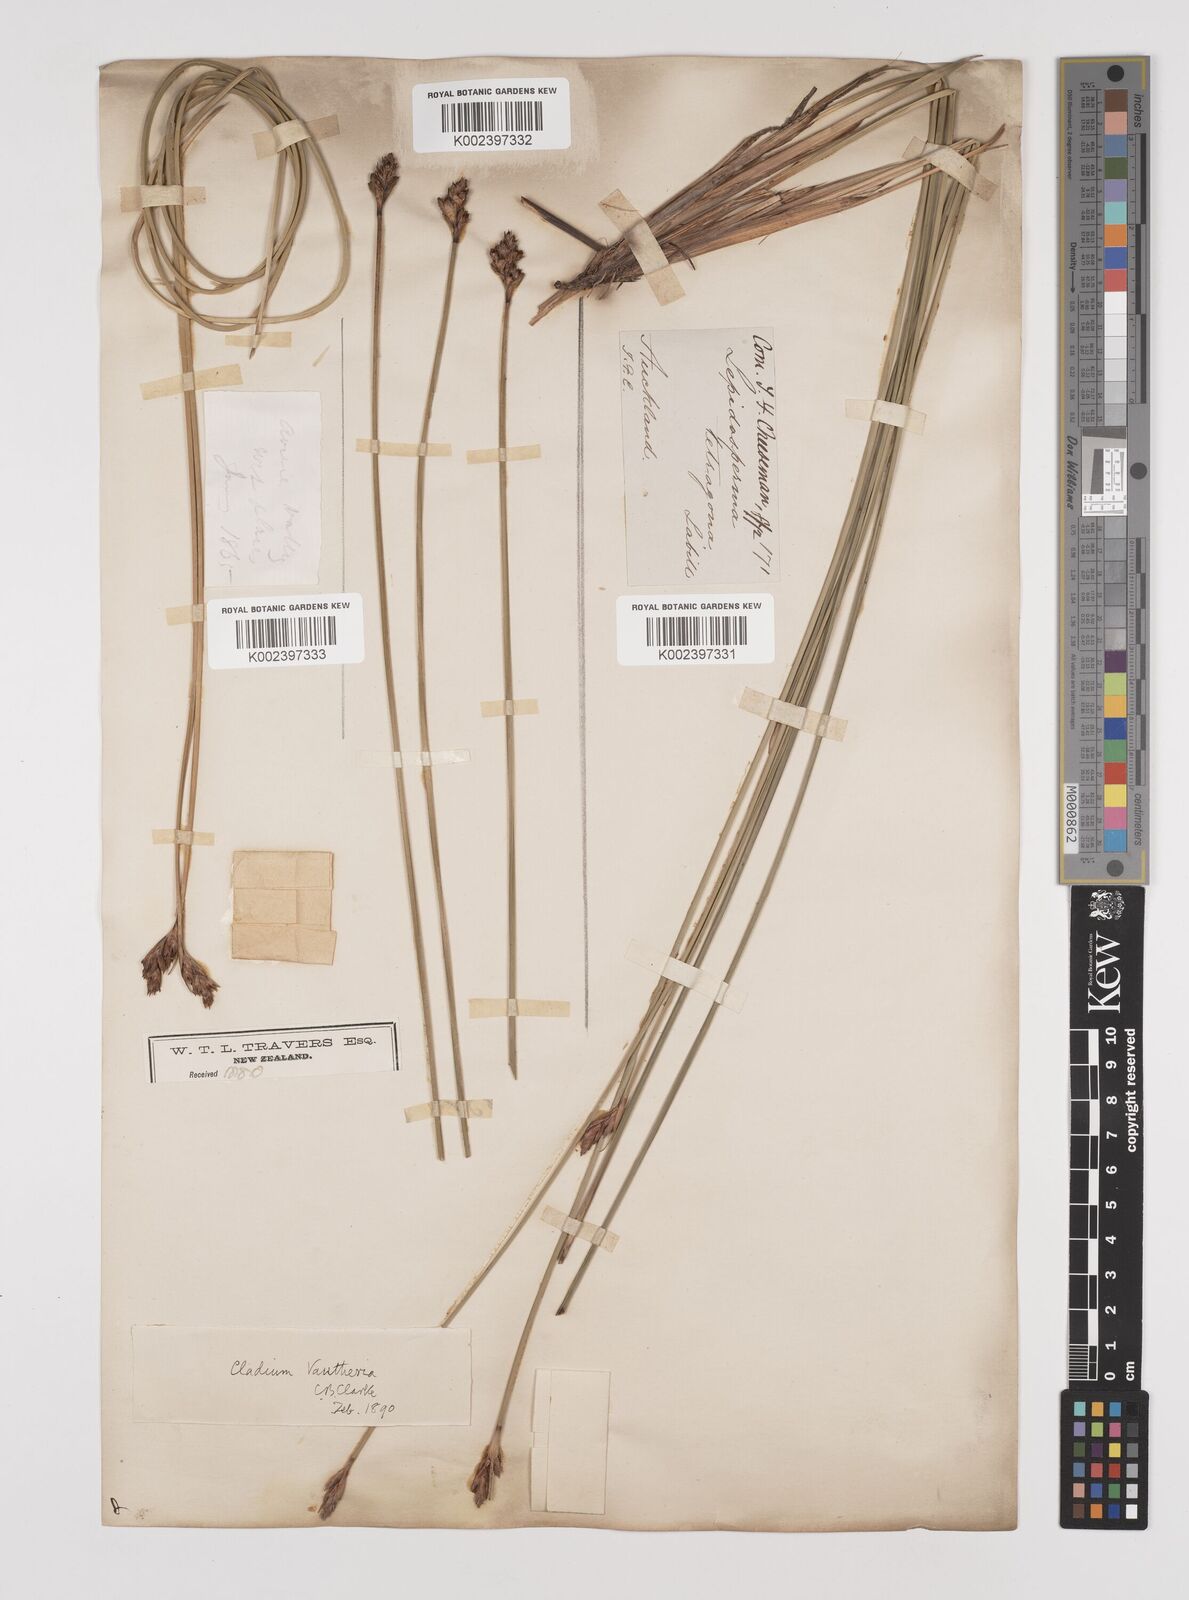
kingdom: Plantae
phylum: Tracheophyta
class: Liliopsida
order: Poales
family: Cyperaceae
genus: Lepidosperma
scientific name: Lepidosperma australe
